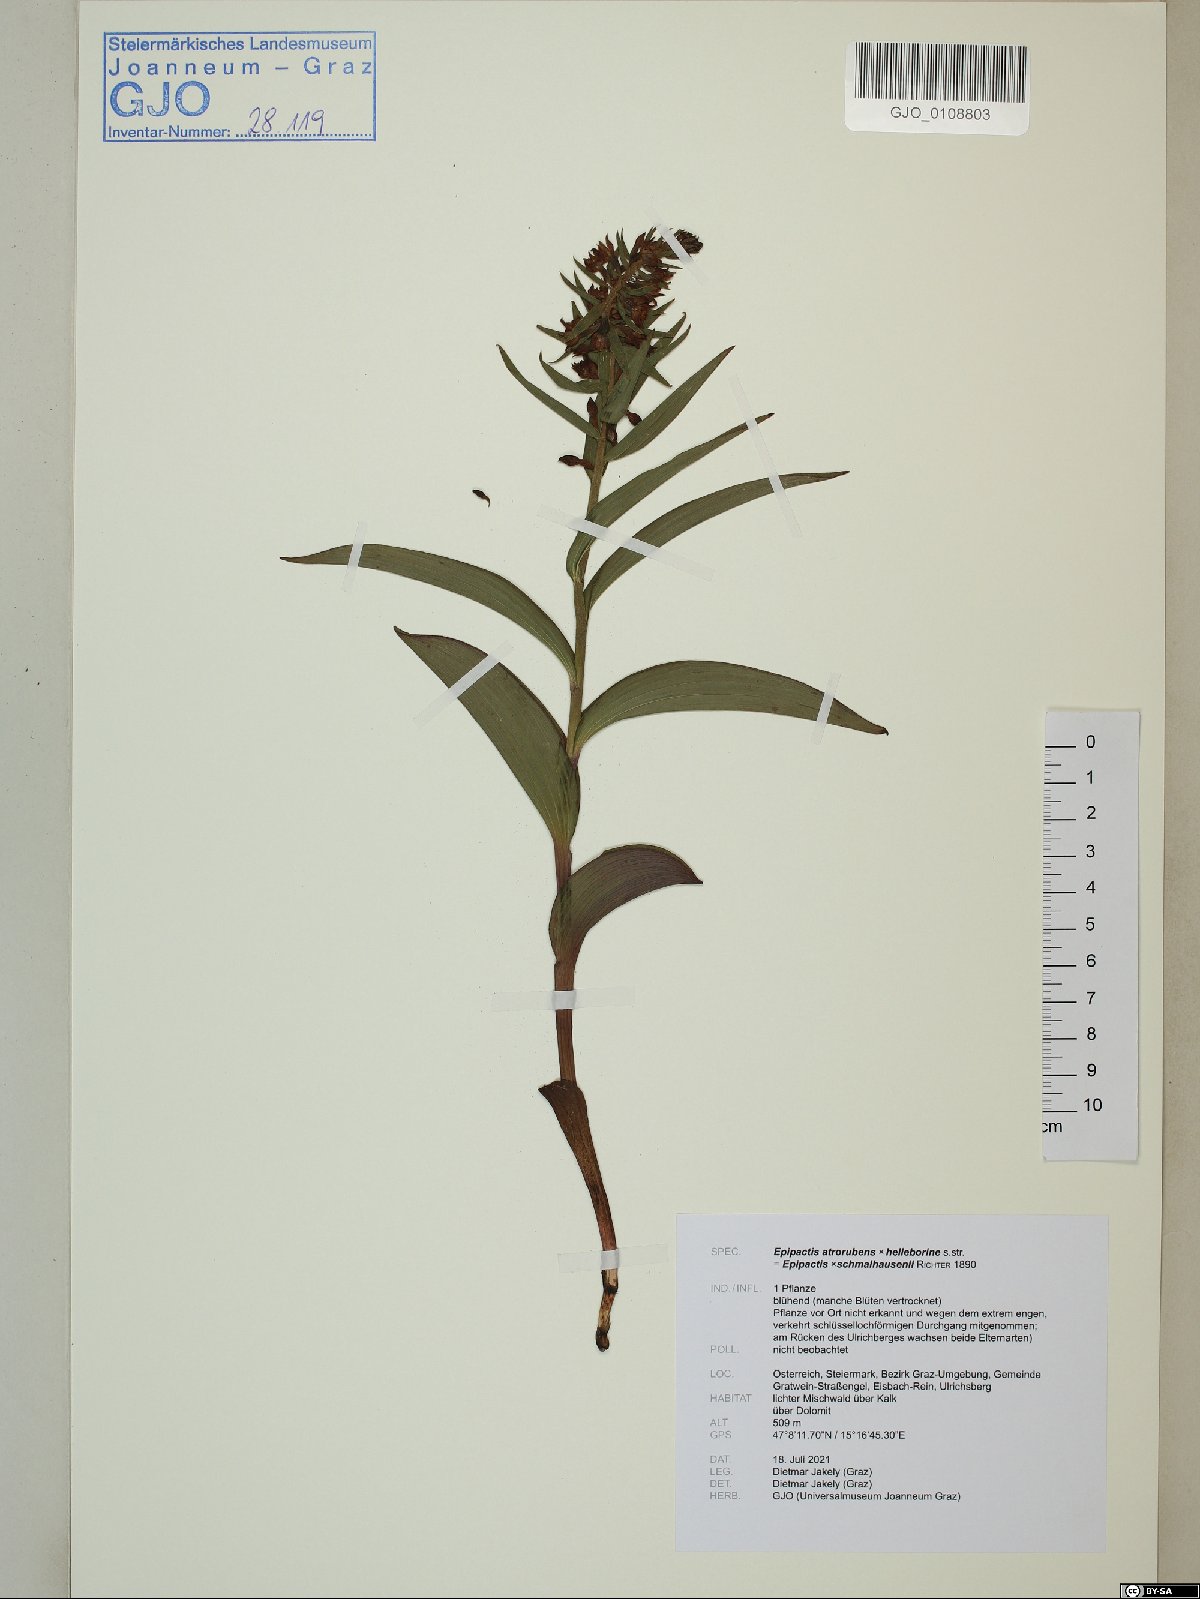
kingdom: Plantae
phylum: Tracheophyta
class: Liliopsida
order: Asparagales
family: Orchidaceae
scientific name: Orchidaceae
